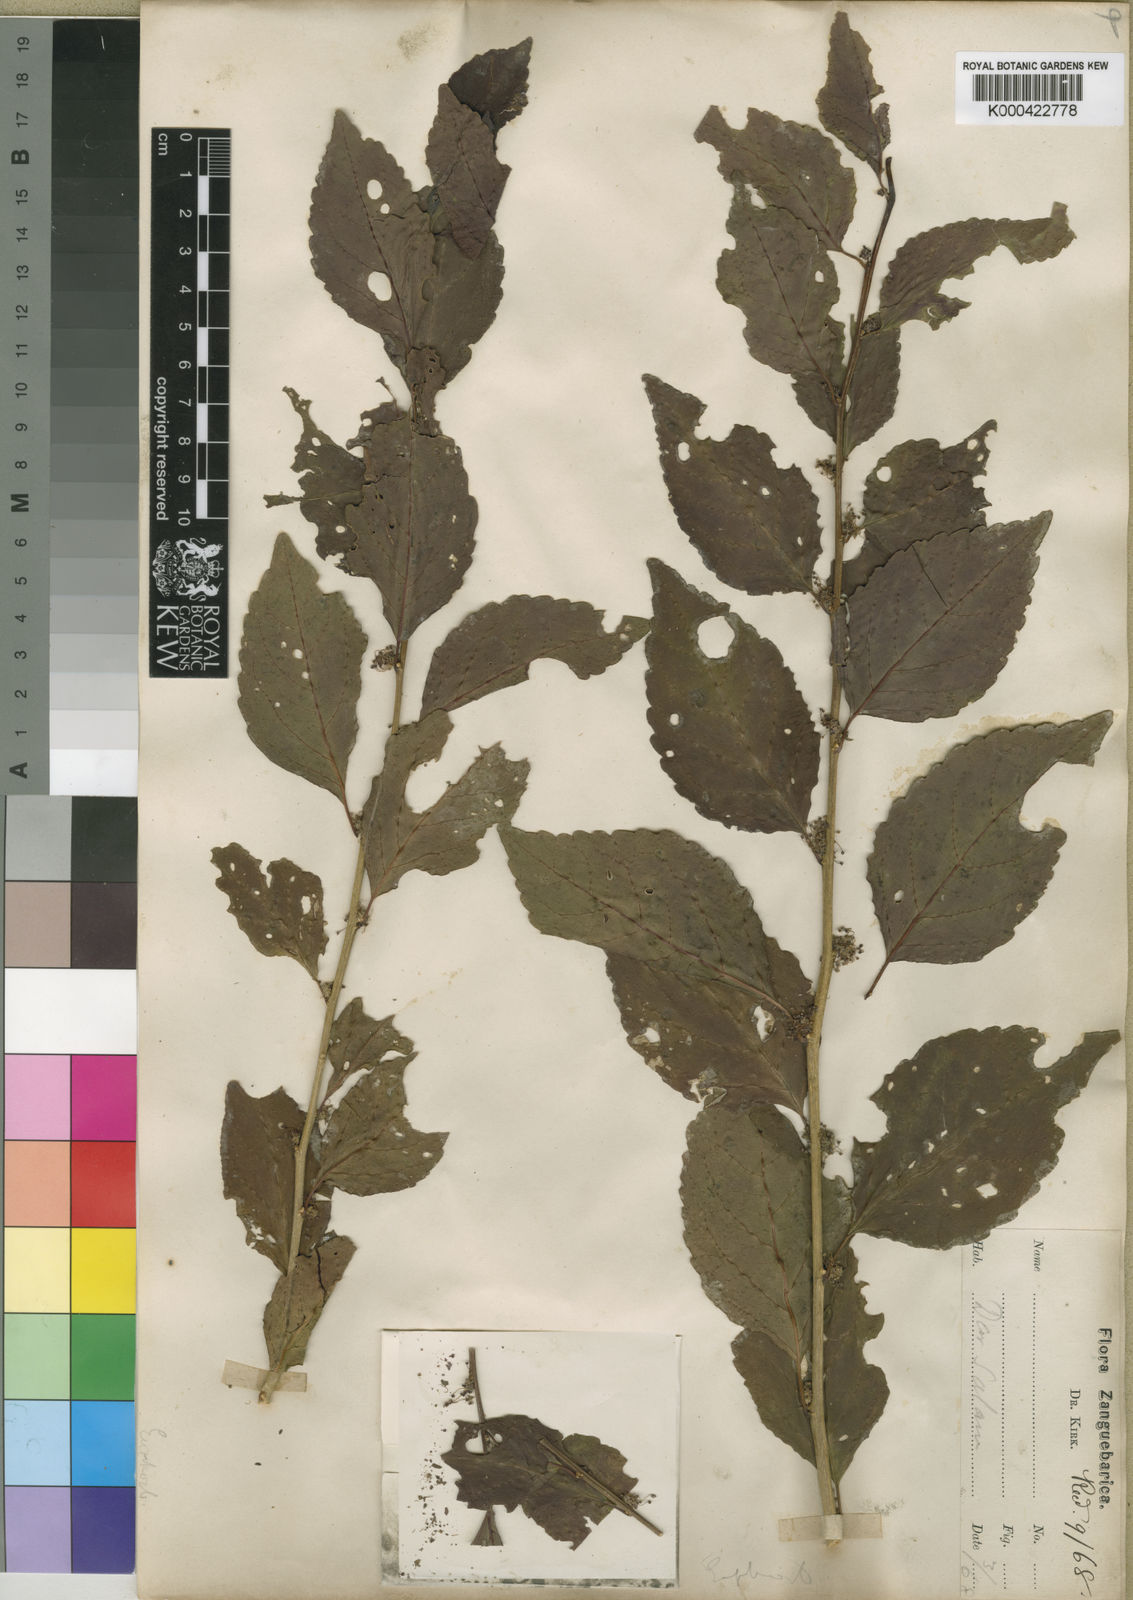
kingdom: Plantae
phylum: Tracheophyta
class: Magnoliopsida
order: Malpighiales
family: Euphorbiaceae
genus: Erythrococca
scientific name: Erythrococca
